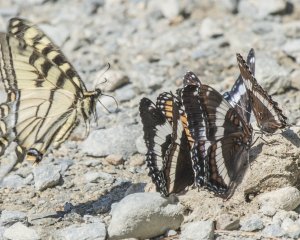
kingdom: Animalia
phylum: Arthropoda
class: Insecta
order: Lepidoptera
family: Papilionidae
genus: Pterourus
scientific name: Pterourus canadensis
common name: Canadian Tiger Swallowtail
